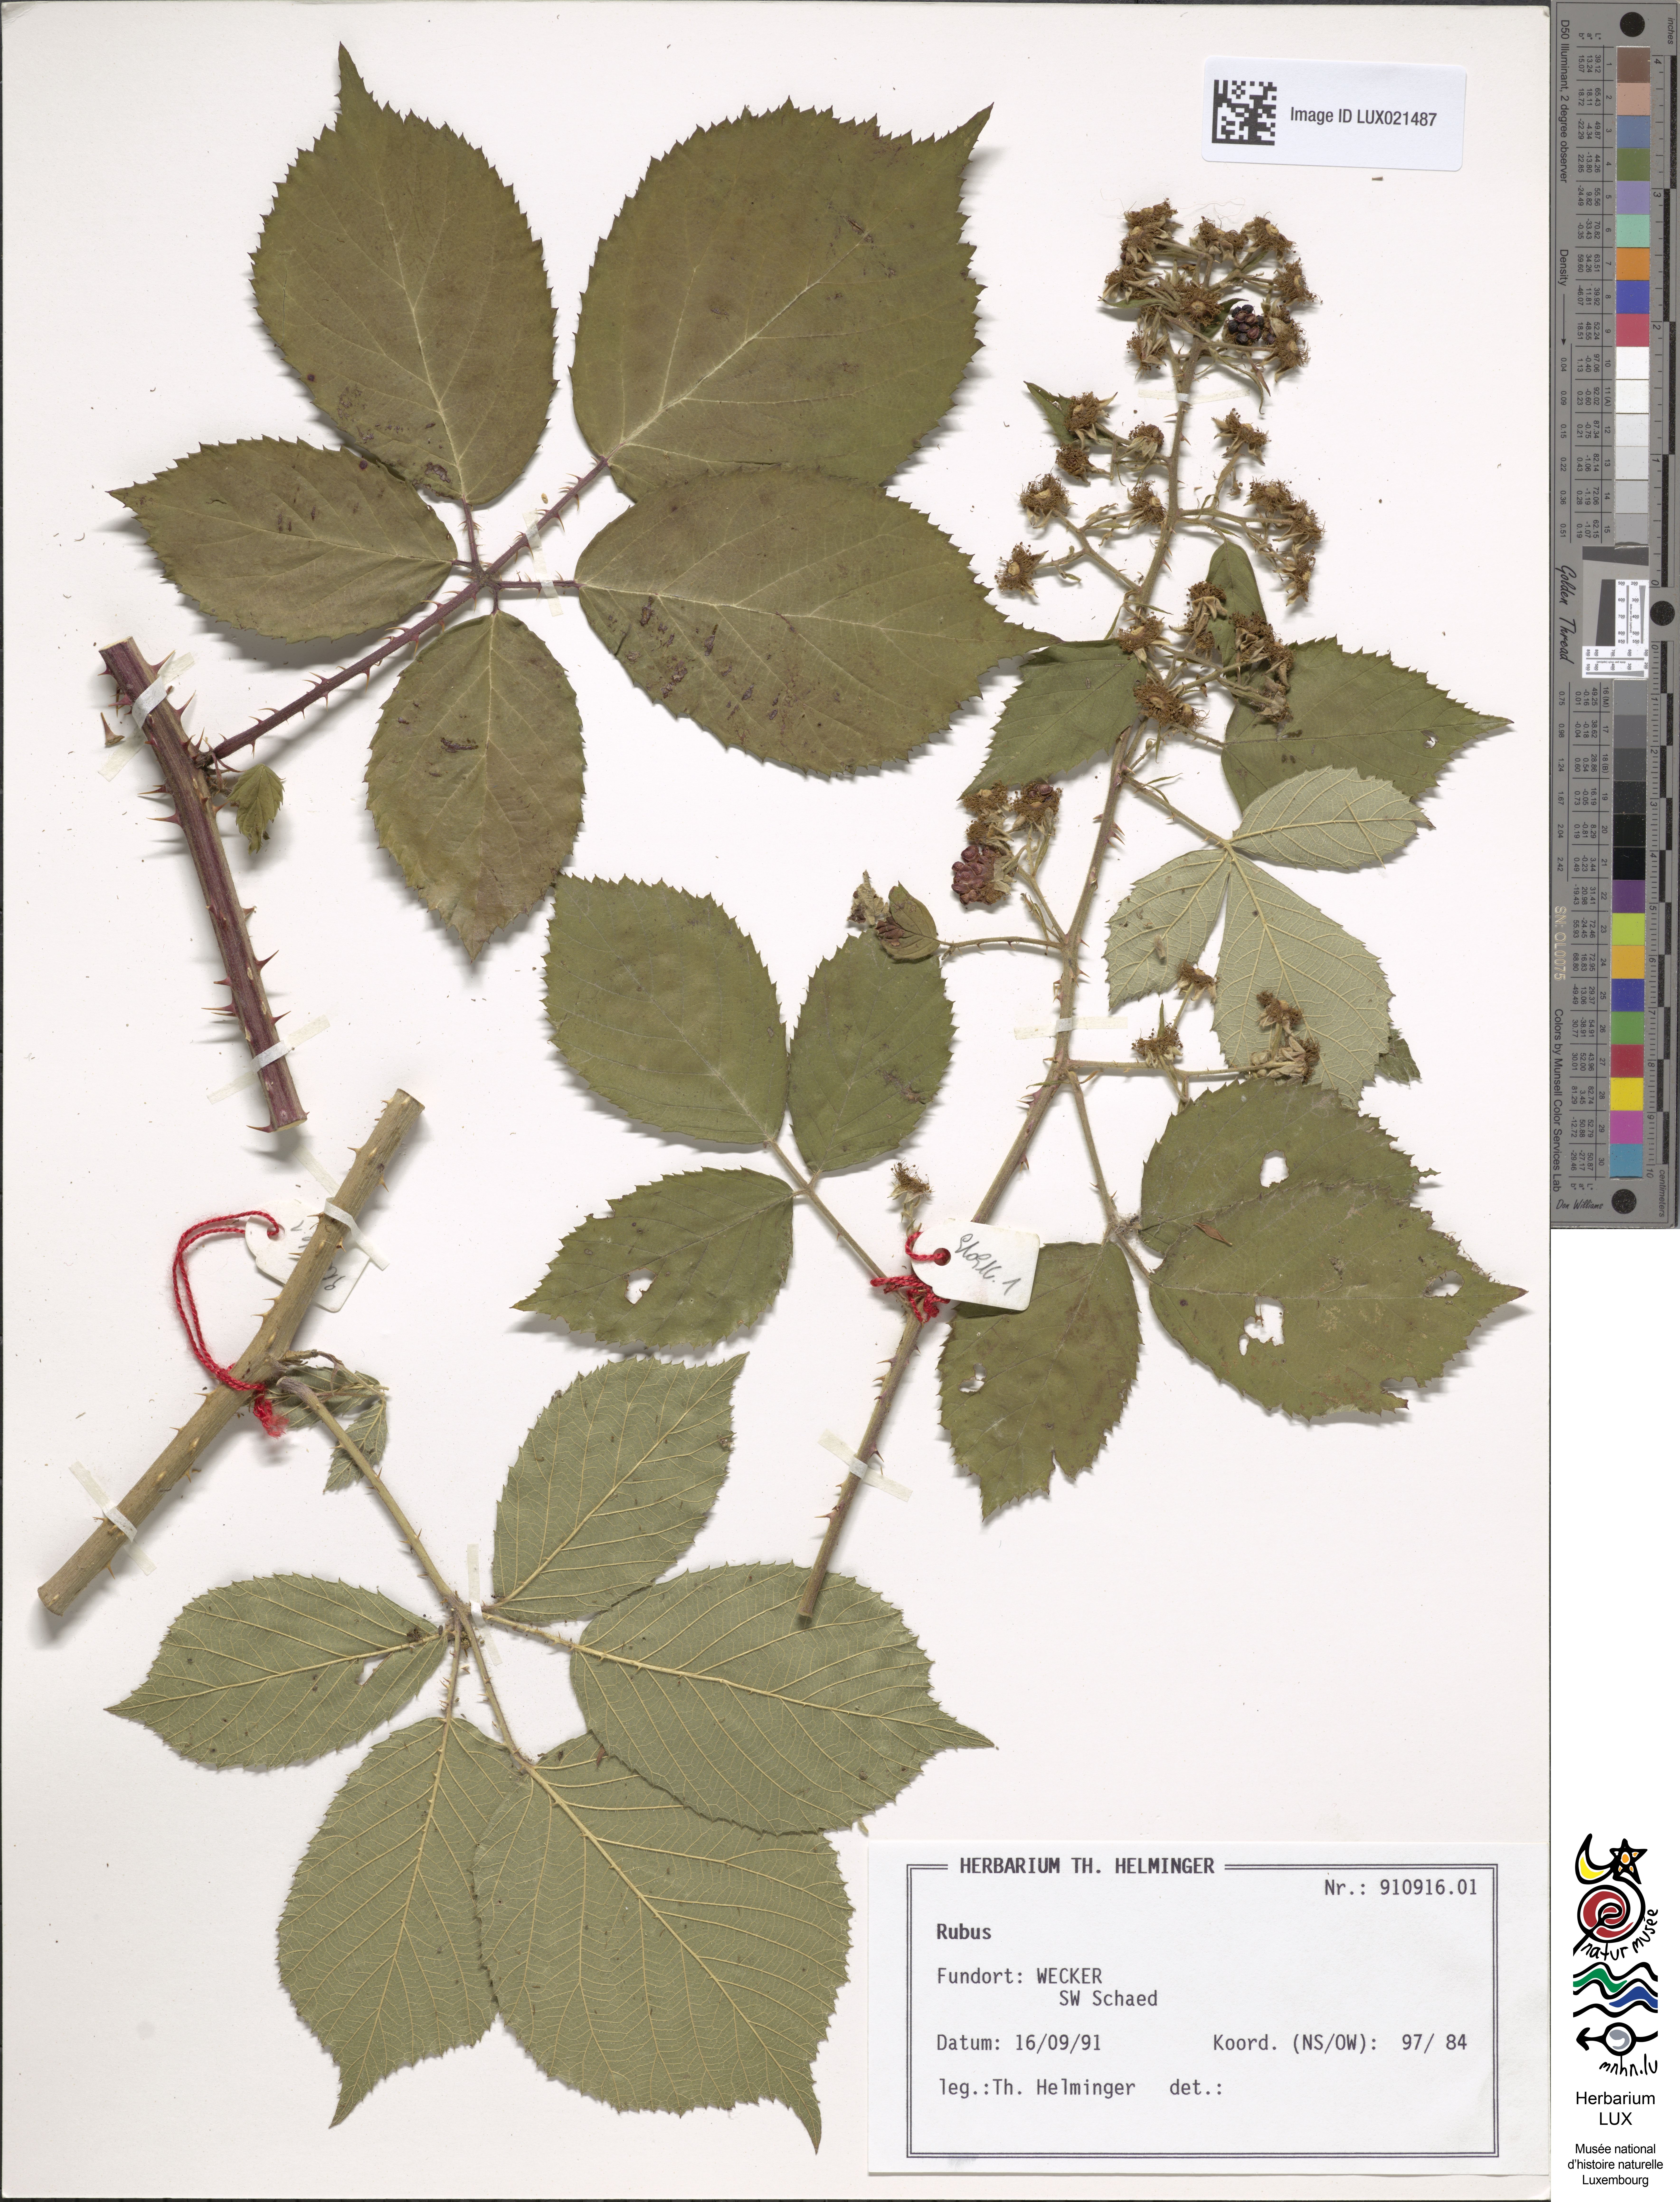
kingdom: Plantae
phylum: Tracheophyta
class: Magnoliopsida
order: Rosales
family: Rosaceae
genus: Rubus
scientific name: Rubus
